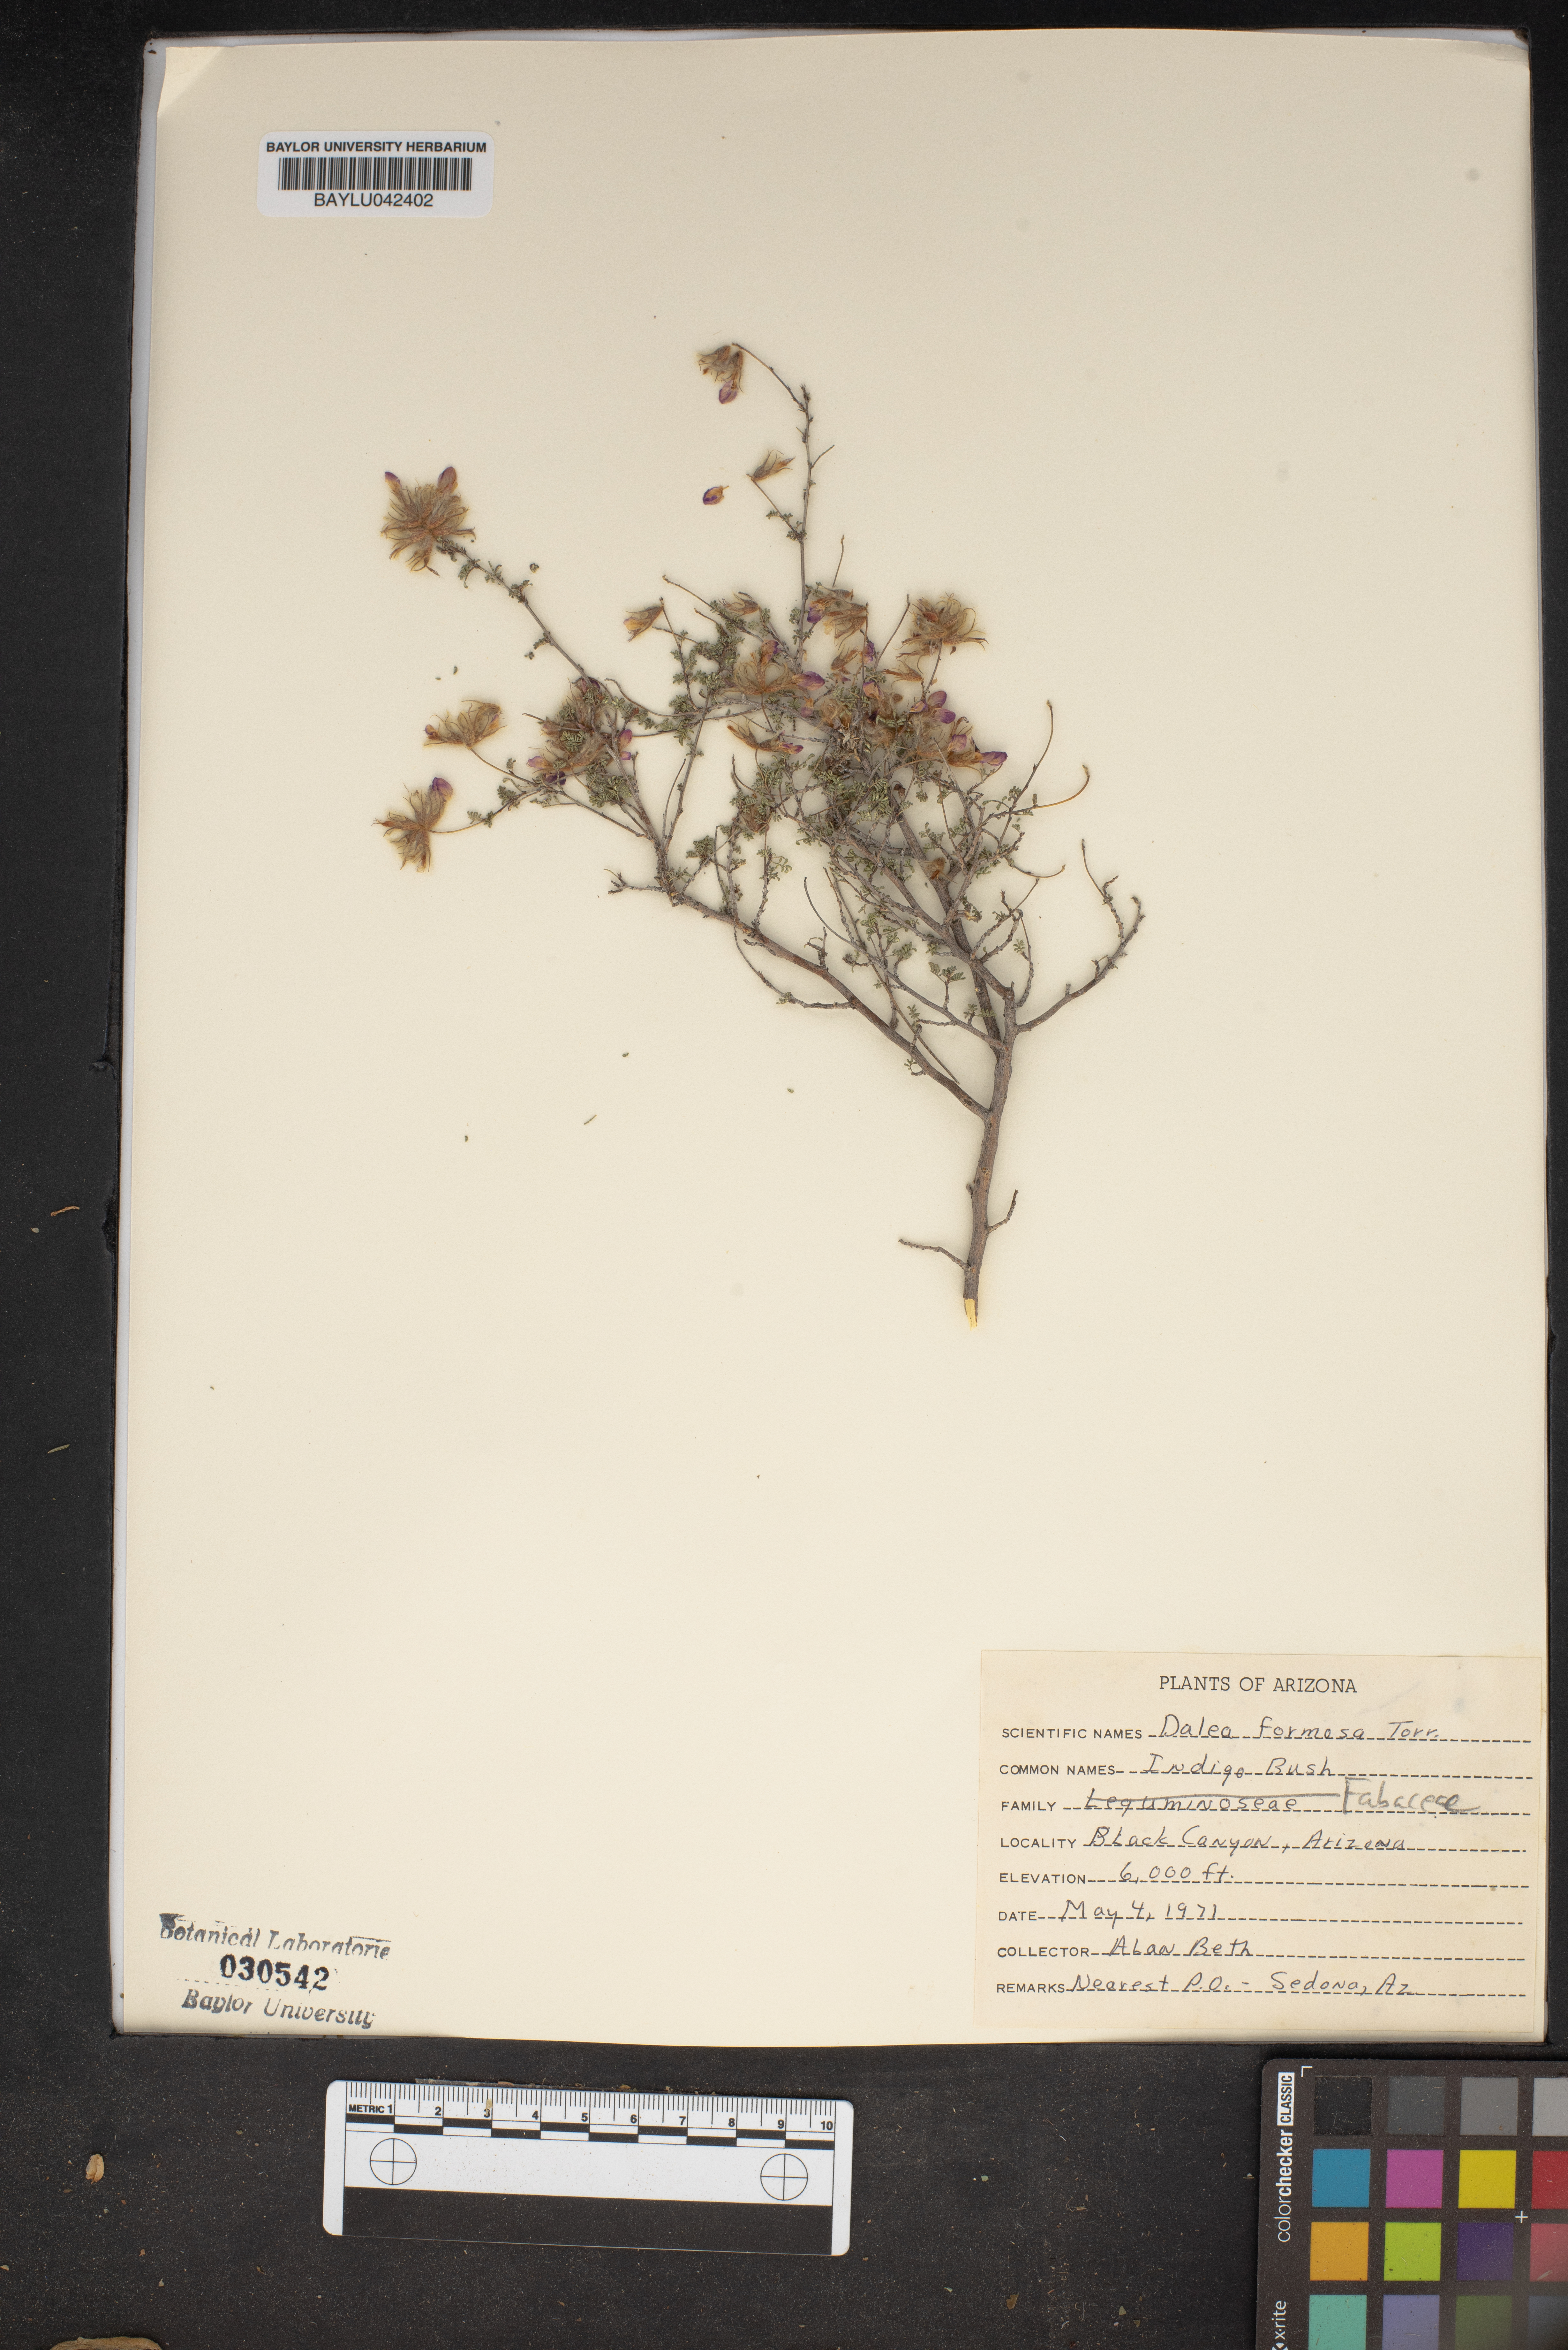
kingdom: Plantae
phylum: Tracheophyta
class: Magnoliopsida
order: Fabales
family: Fabaceae
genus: Dalea
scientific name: Dalea formosa
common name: Feather-plume dalea
